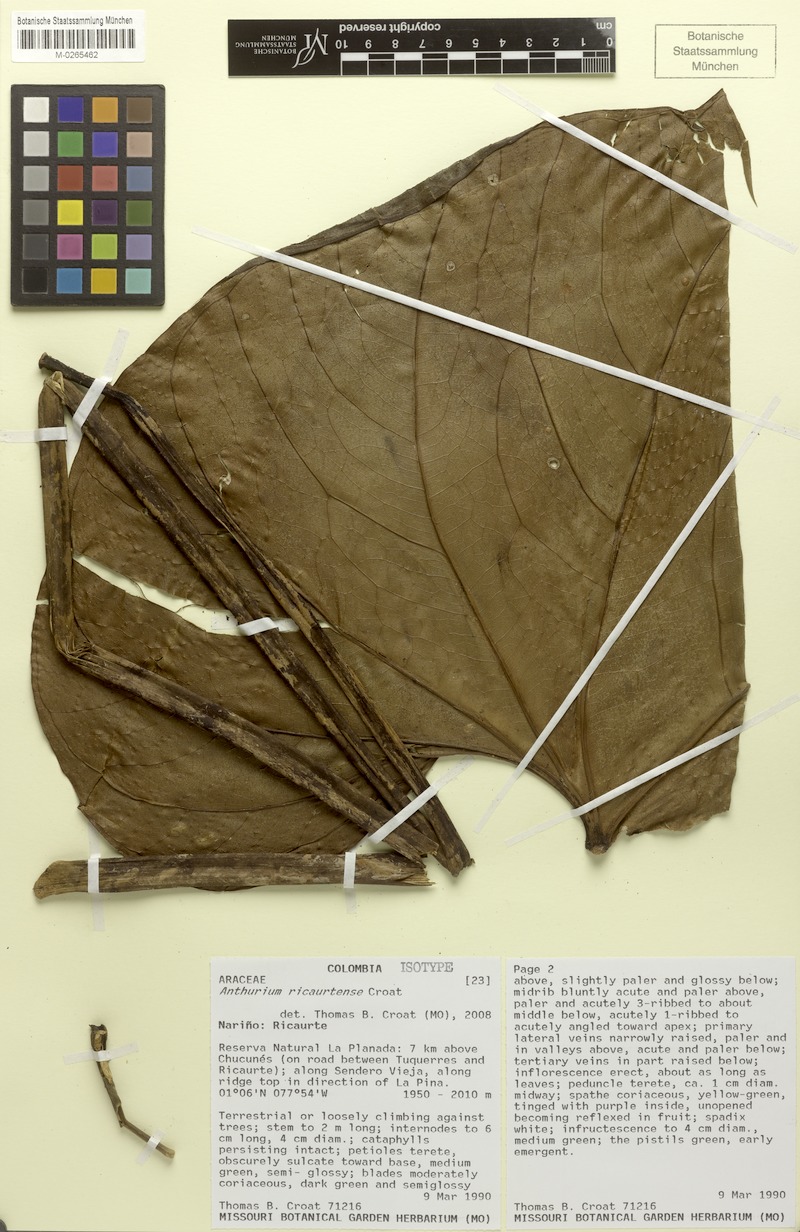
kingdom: Plantae
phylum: Tracheophyta
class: Liliopsida
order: Alismatales
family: Araceae
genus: Anthurium
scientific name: Anthurium ricaurtense
